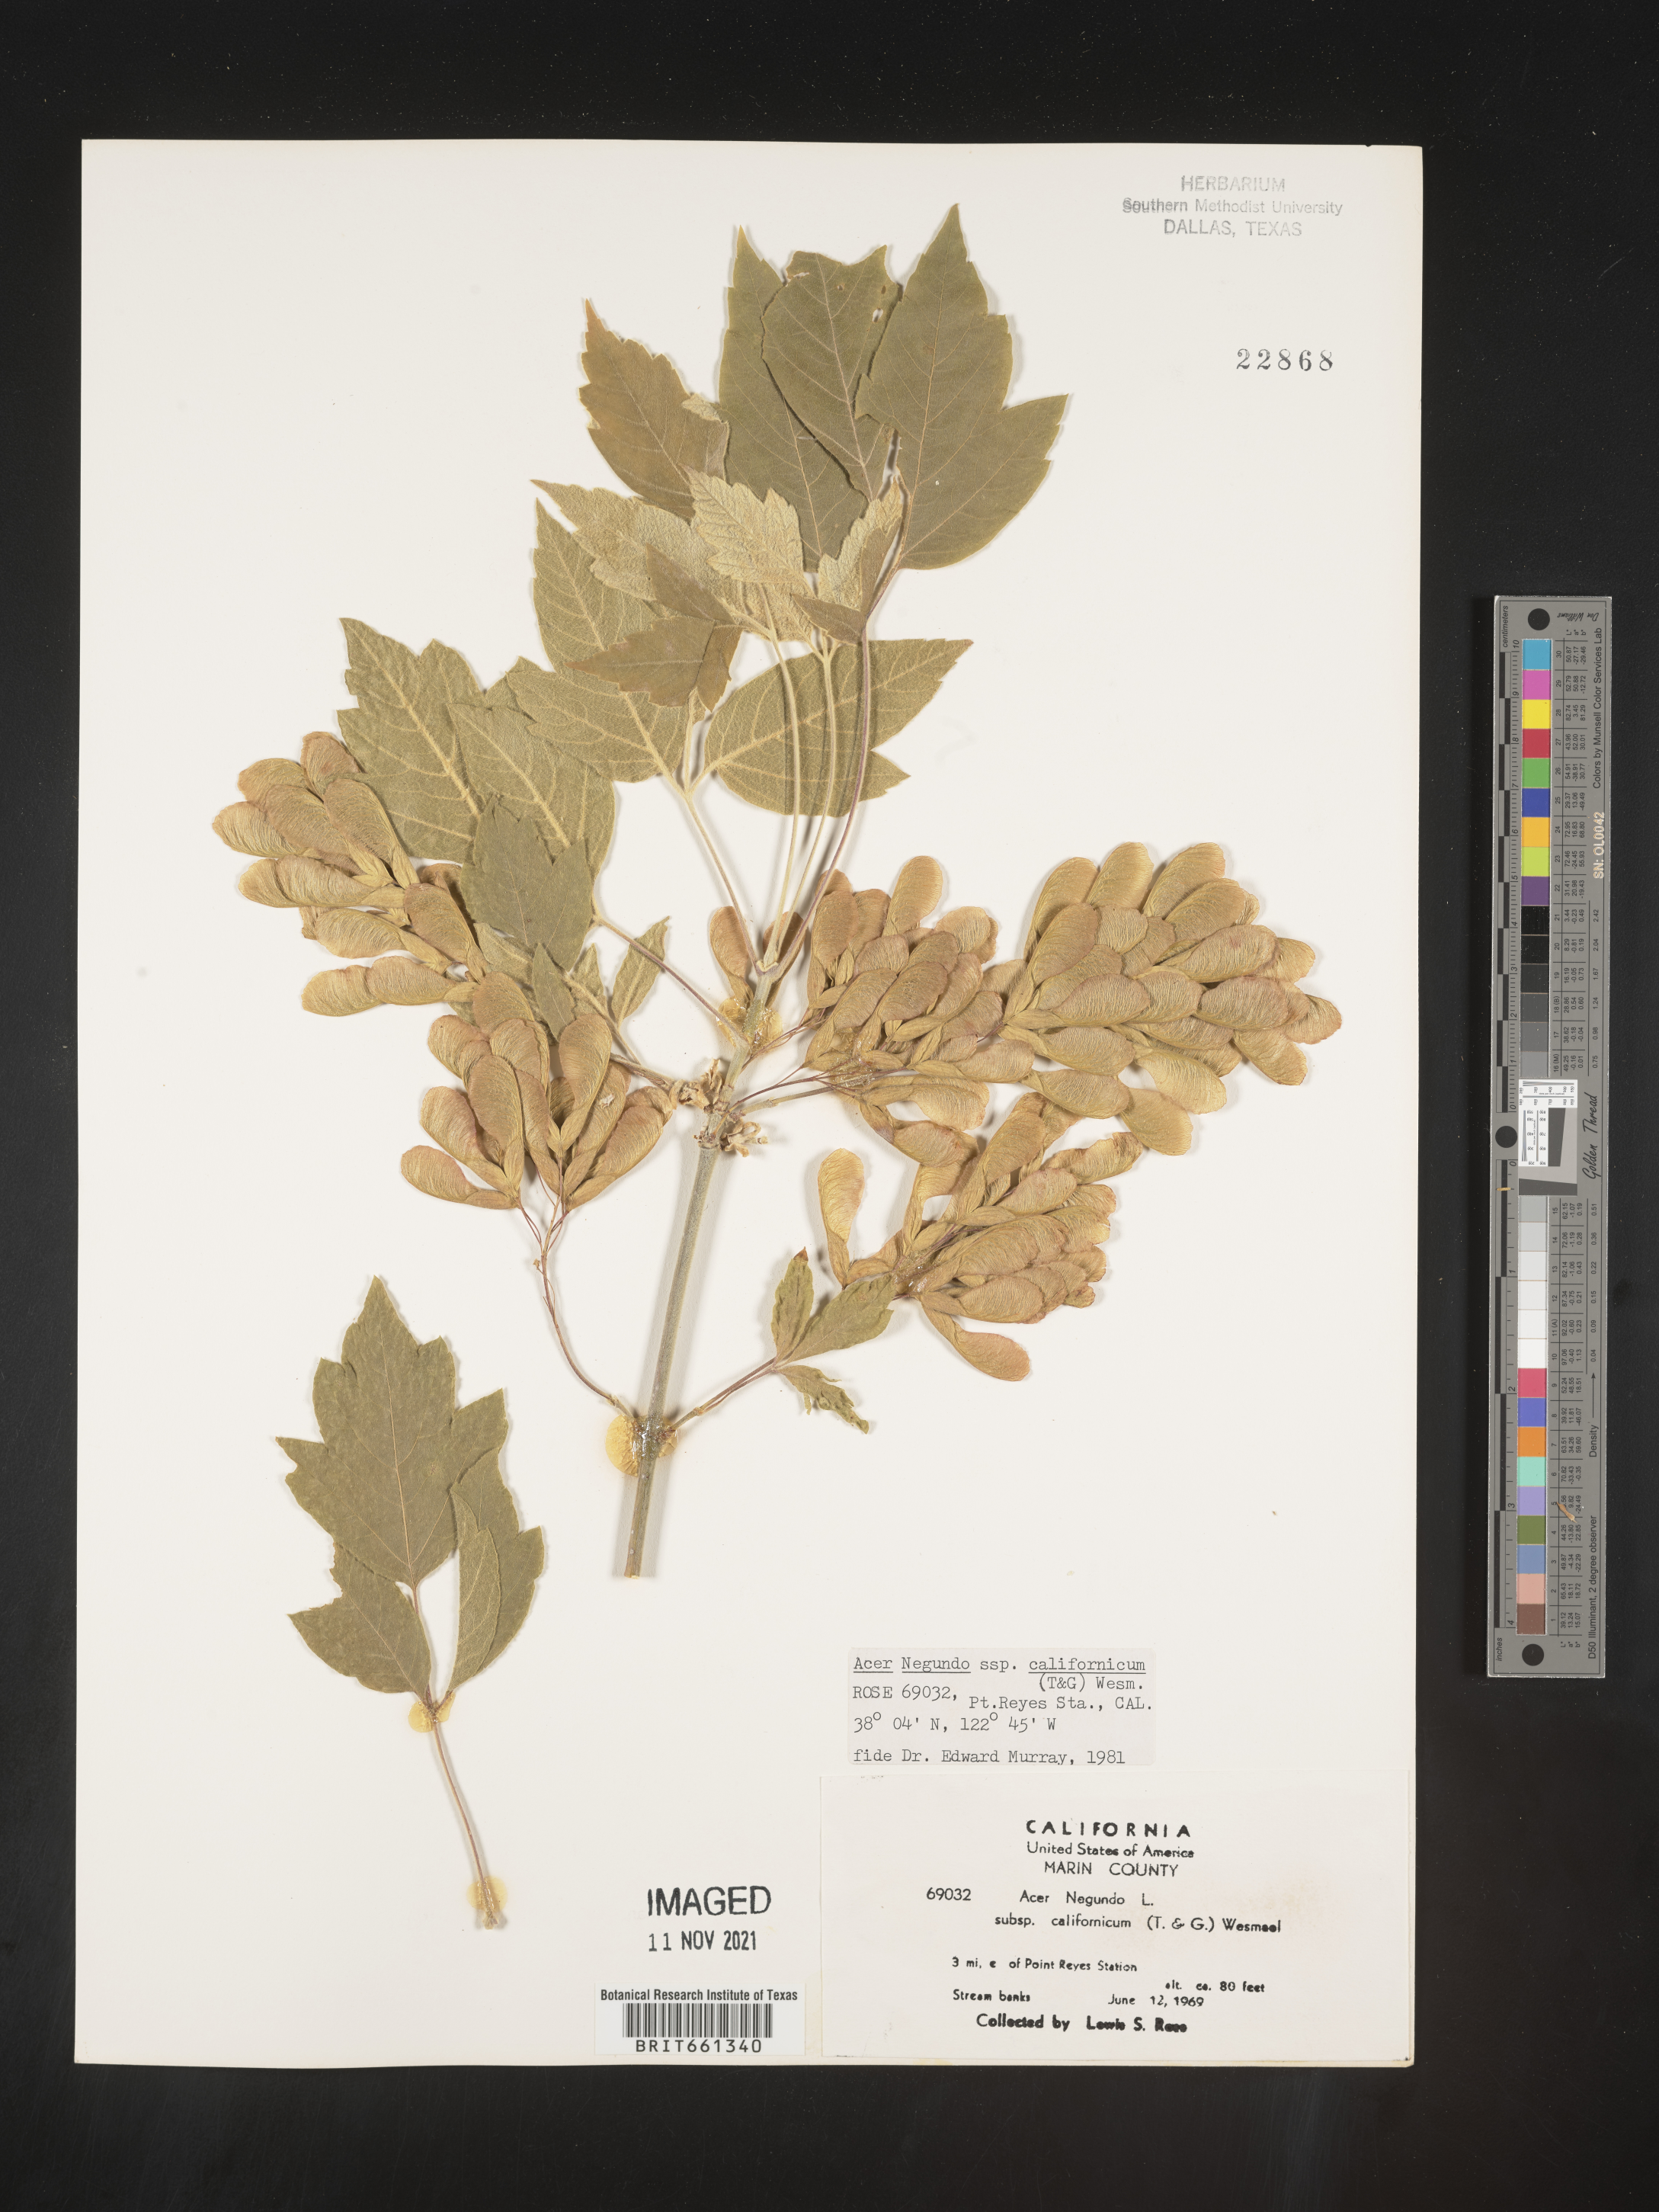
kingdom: Plantae
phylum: Tracheophyta
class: Magnoliopsida
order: Sapindales
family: Sapindaceae
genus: Acer
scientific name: Acer negundo
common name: Ashleaf maple
